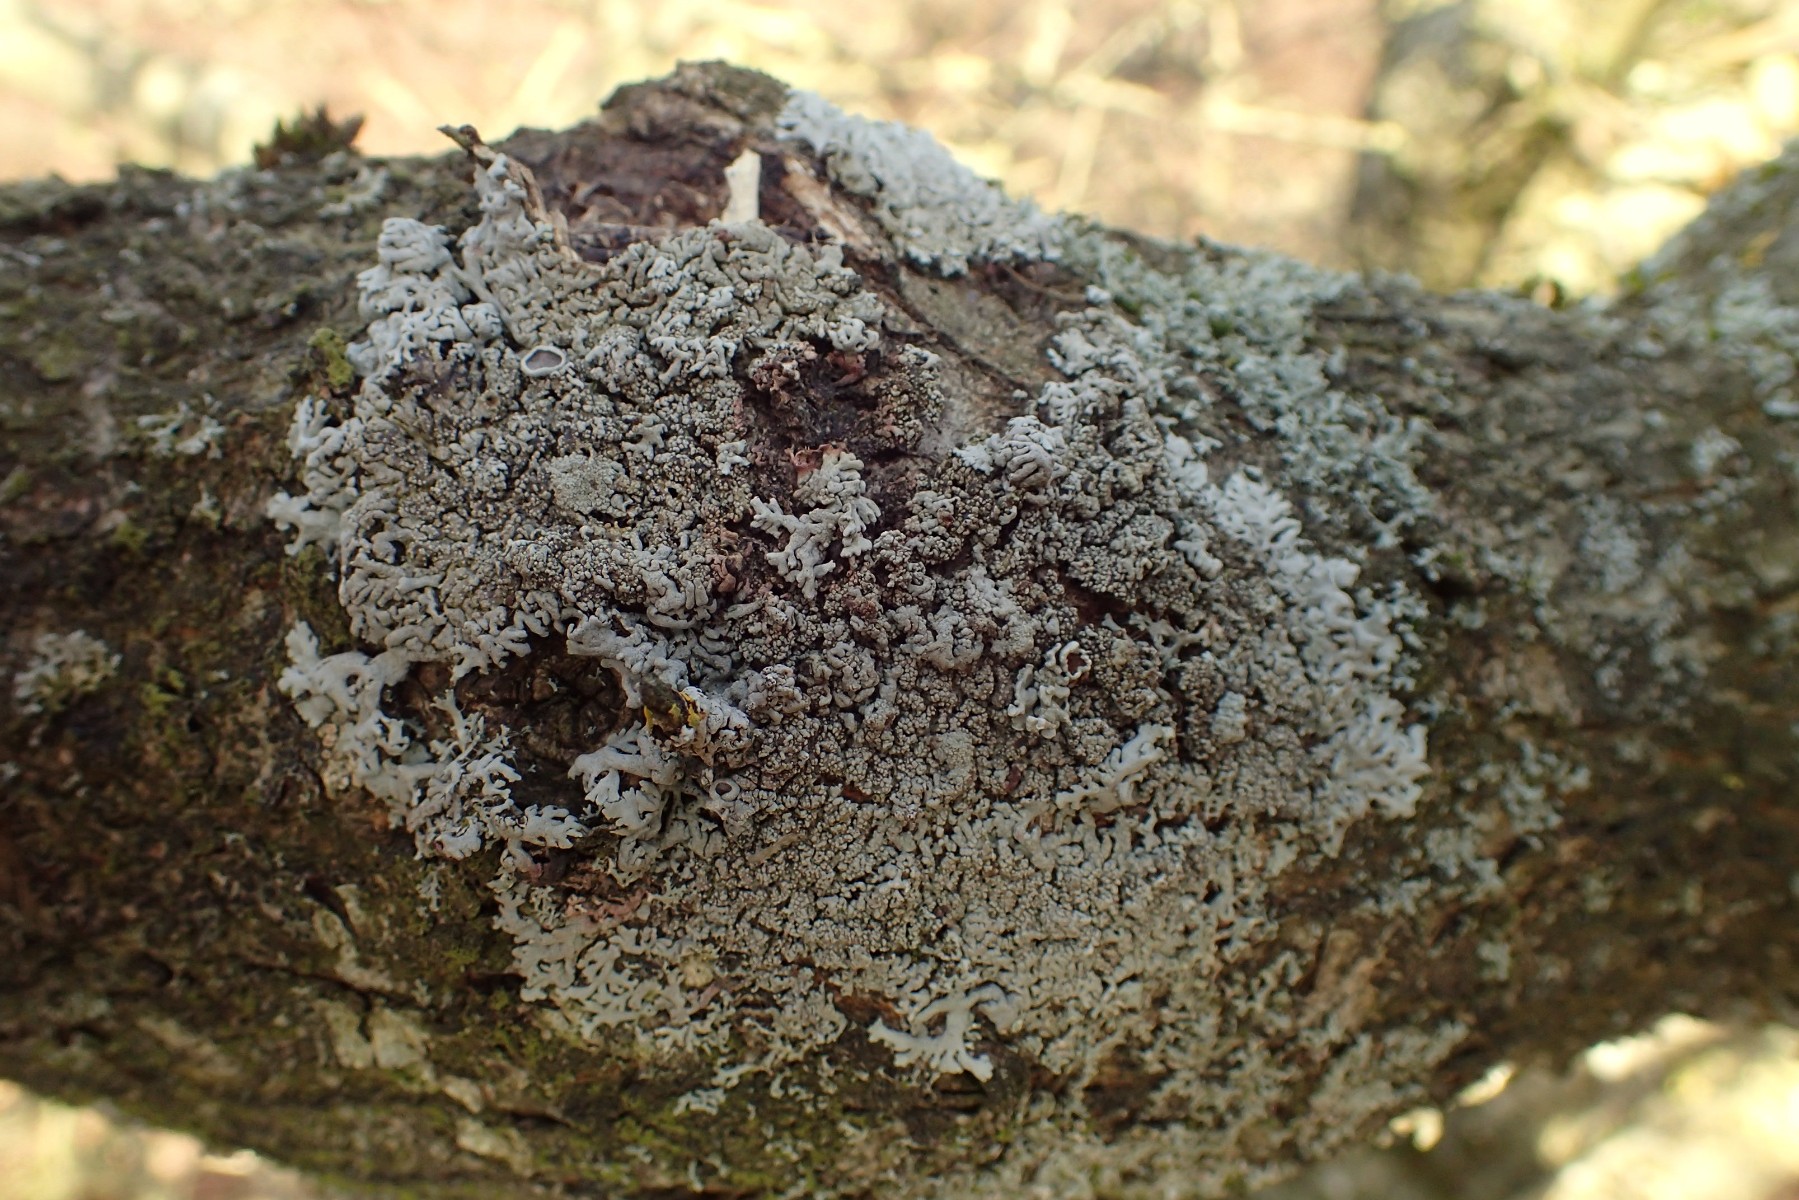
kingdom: Fungi
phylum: Ascomycota
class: Lecanoromycetes
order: Caliciales
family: Physciaceae
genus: Physcia
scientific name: Physcia stellaris
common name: stjerneformet rosetlav
